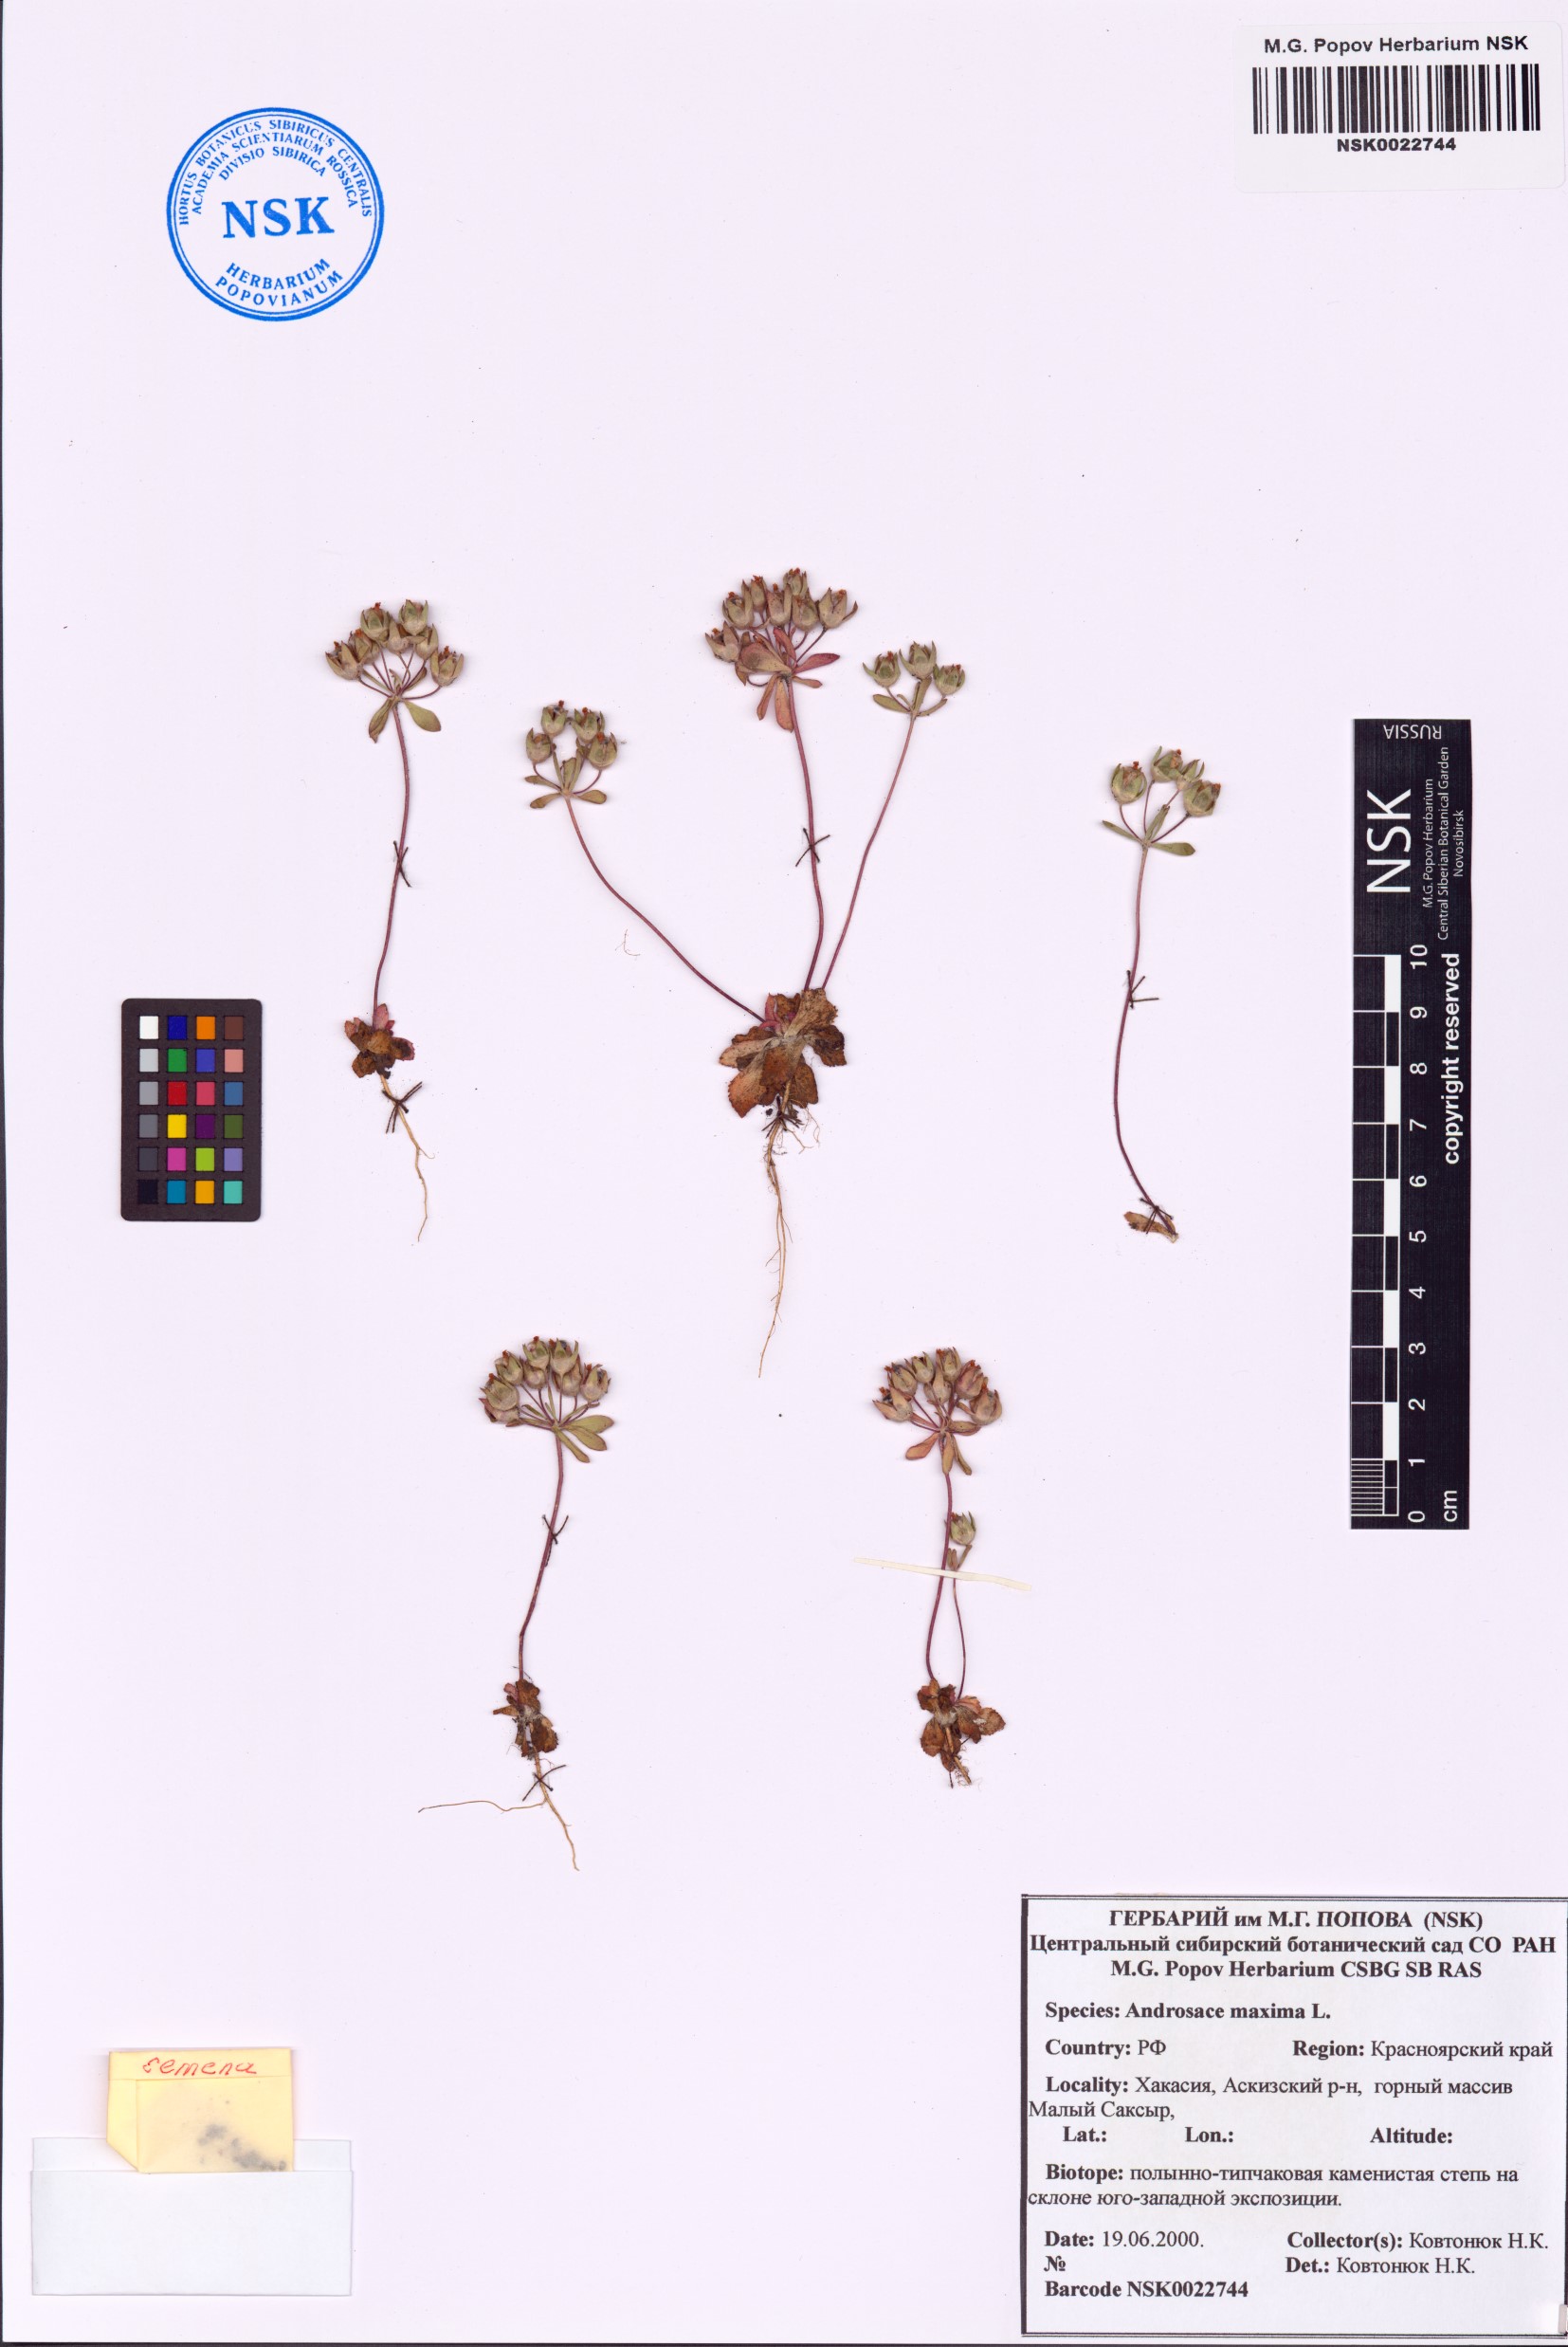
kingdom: Plantae
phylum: Tracheophyta
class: Magnoliopsida
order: Ericales
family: Primulaceae
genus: Androsace
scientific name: Androsace maxima
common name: Annual androsace
